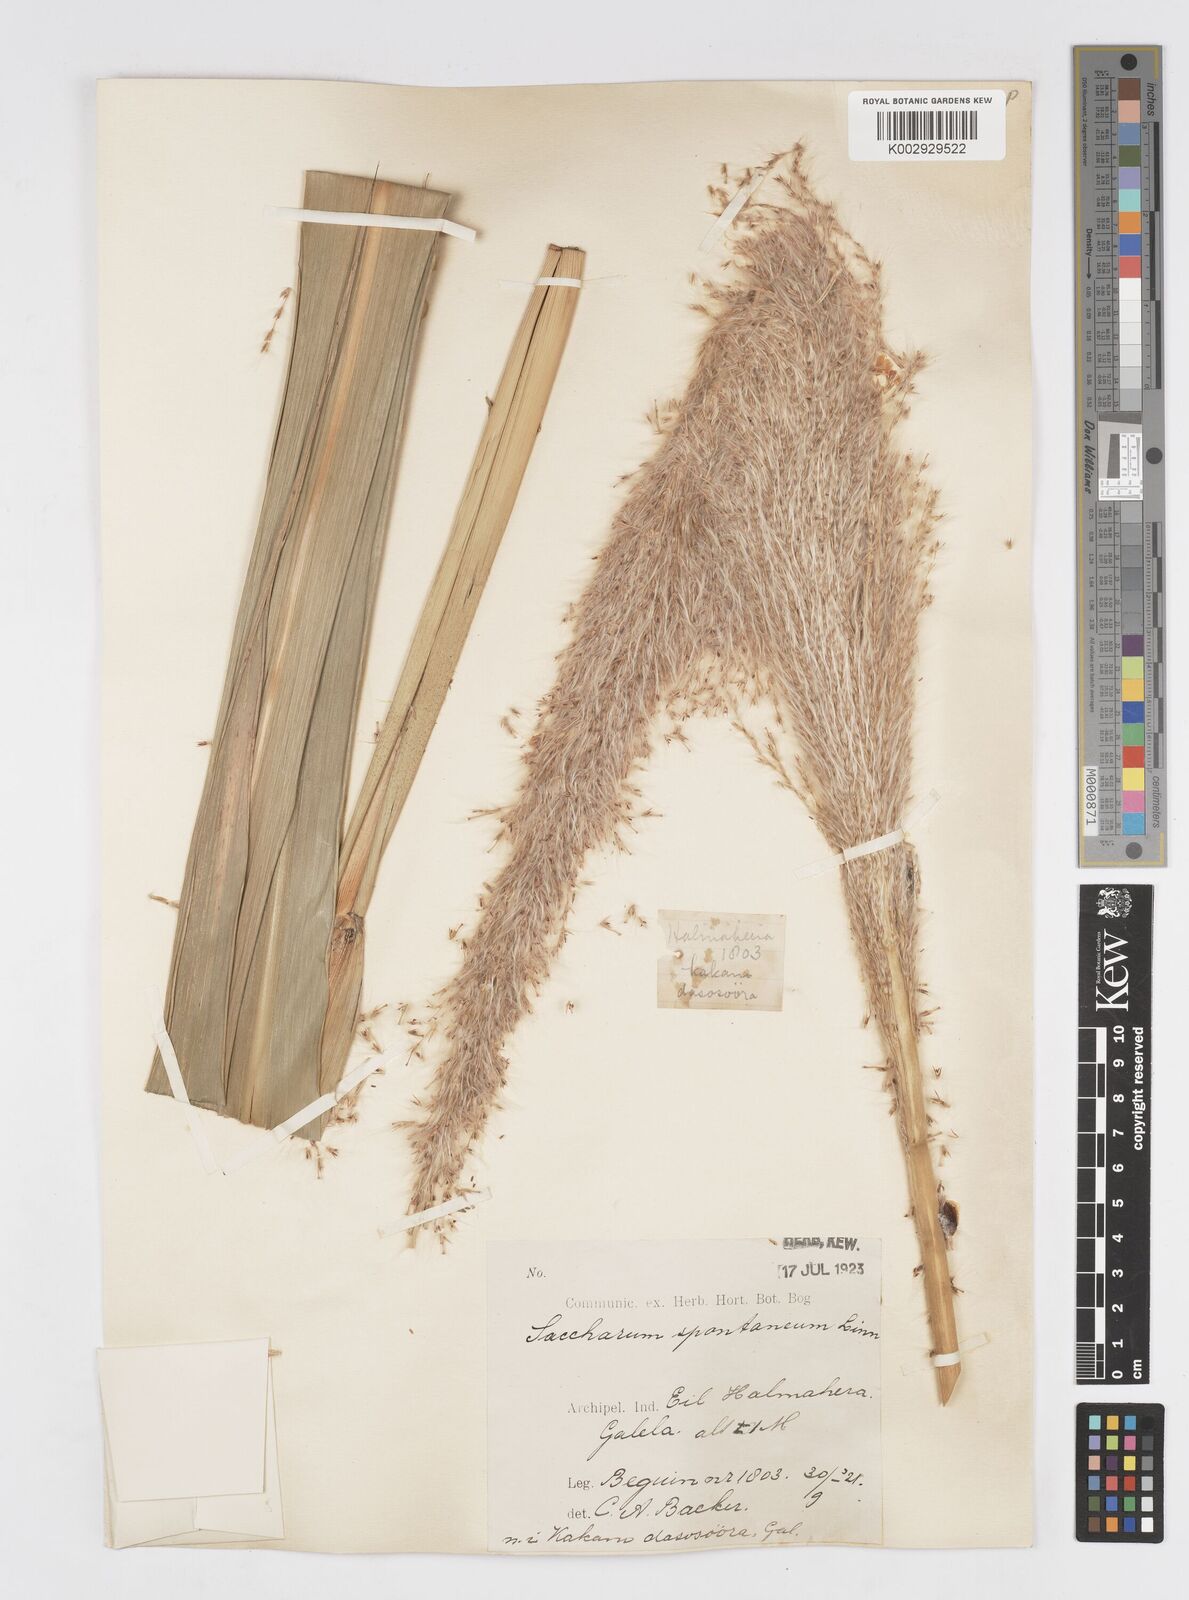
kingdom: Plantae
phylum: Tracheophyta
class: Liliopsida
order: Poales
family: Poaceae
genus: Saccharum
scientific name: Saccharum spontaneum
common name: Wild sugarcane
